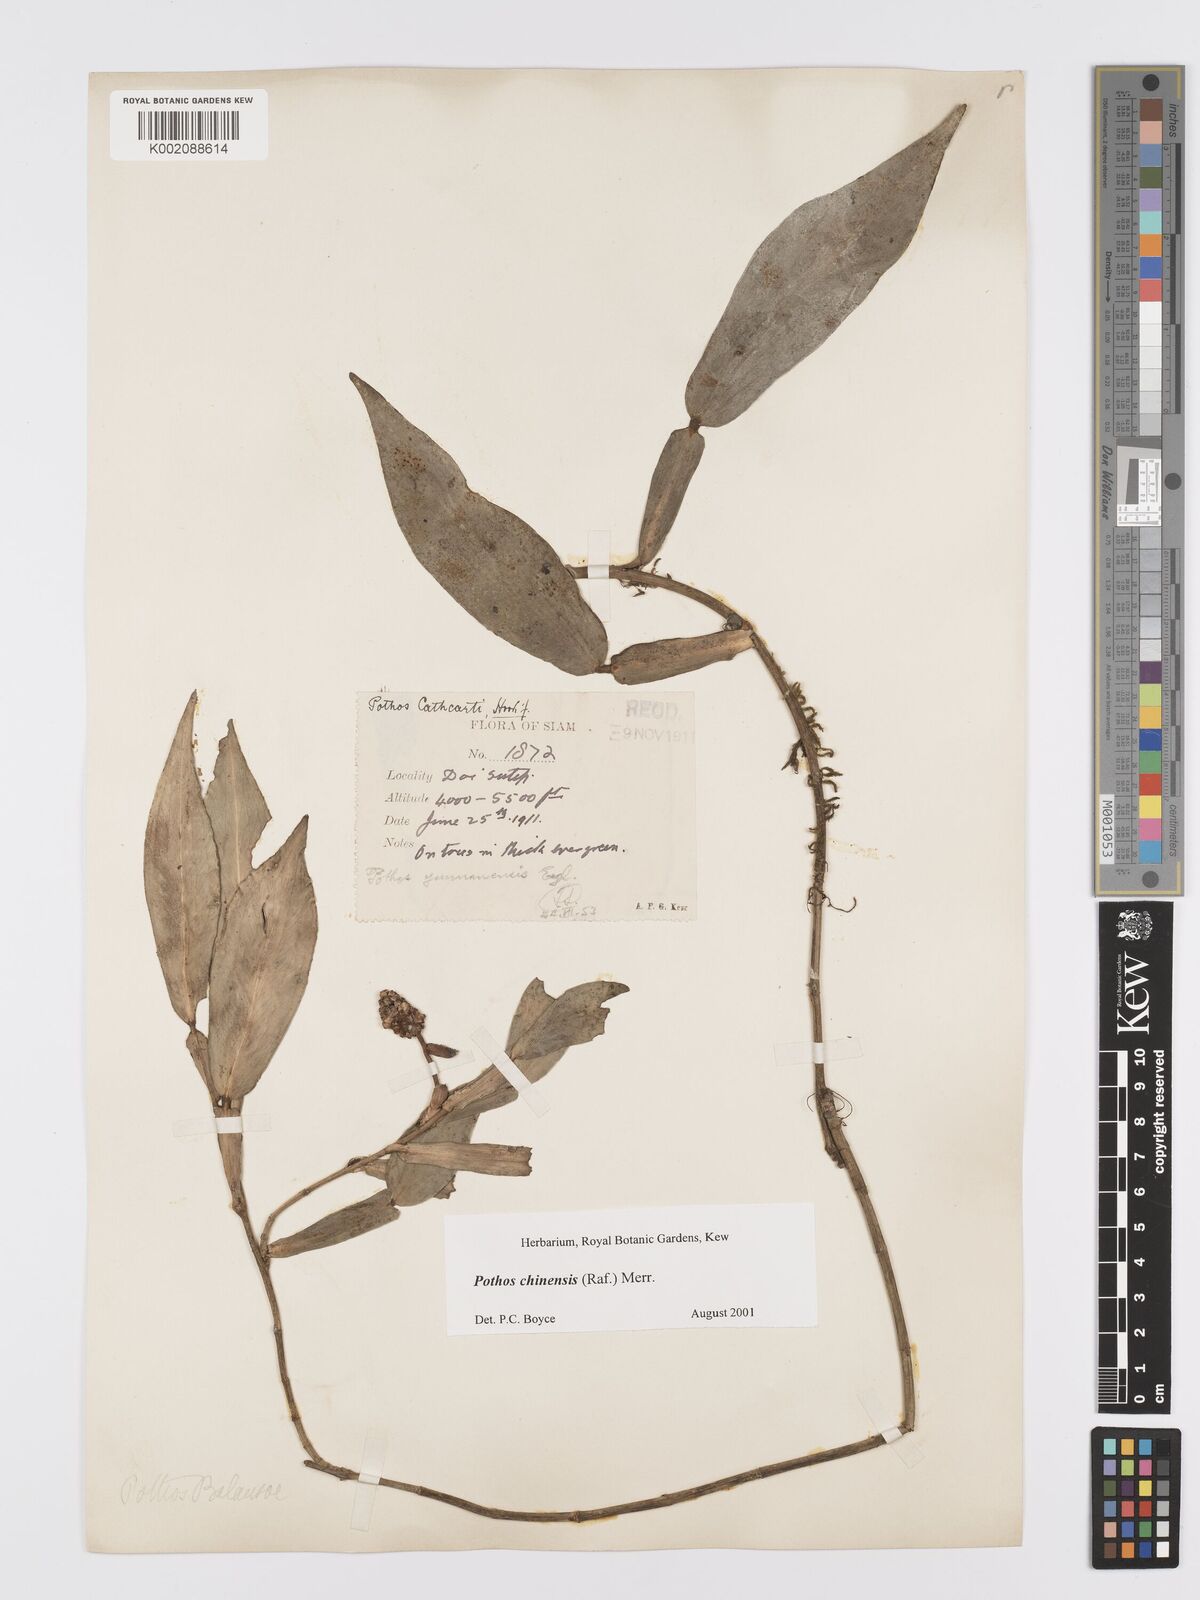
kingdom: Plantae
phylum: Tracheophyta
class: Liliopsida
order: Alismatales
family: Araceae
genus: Pothos
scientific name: Pothos chinensis
